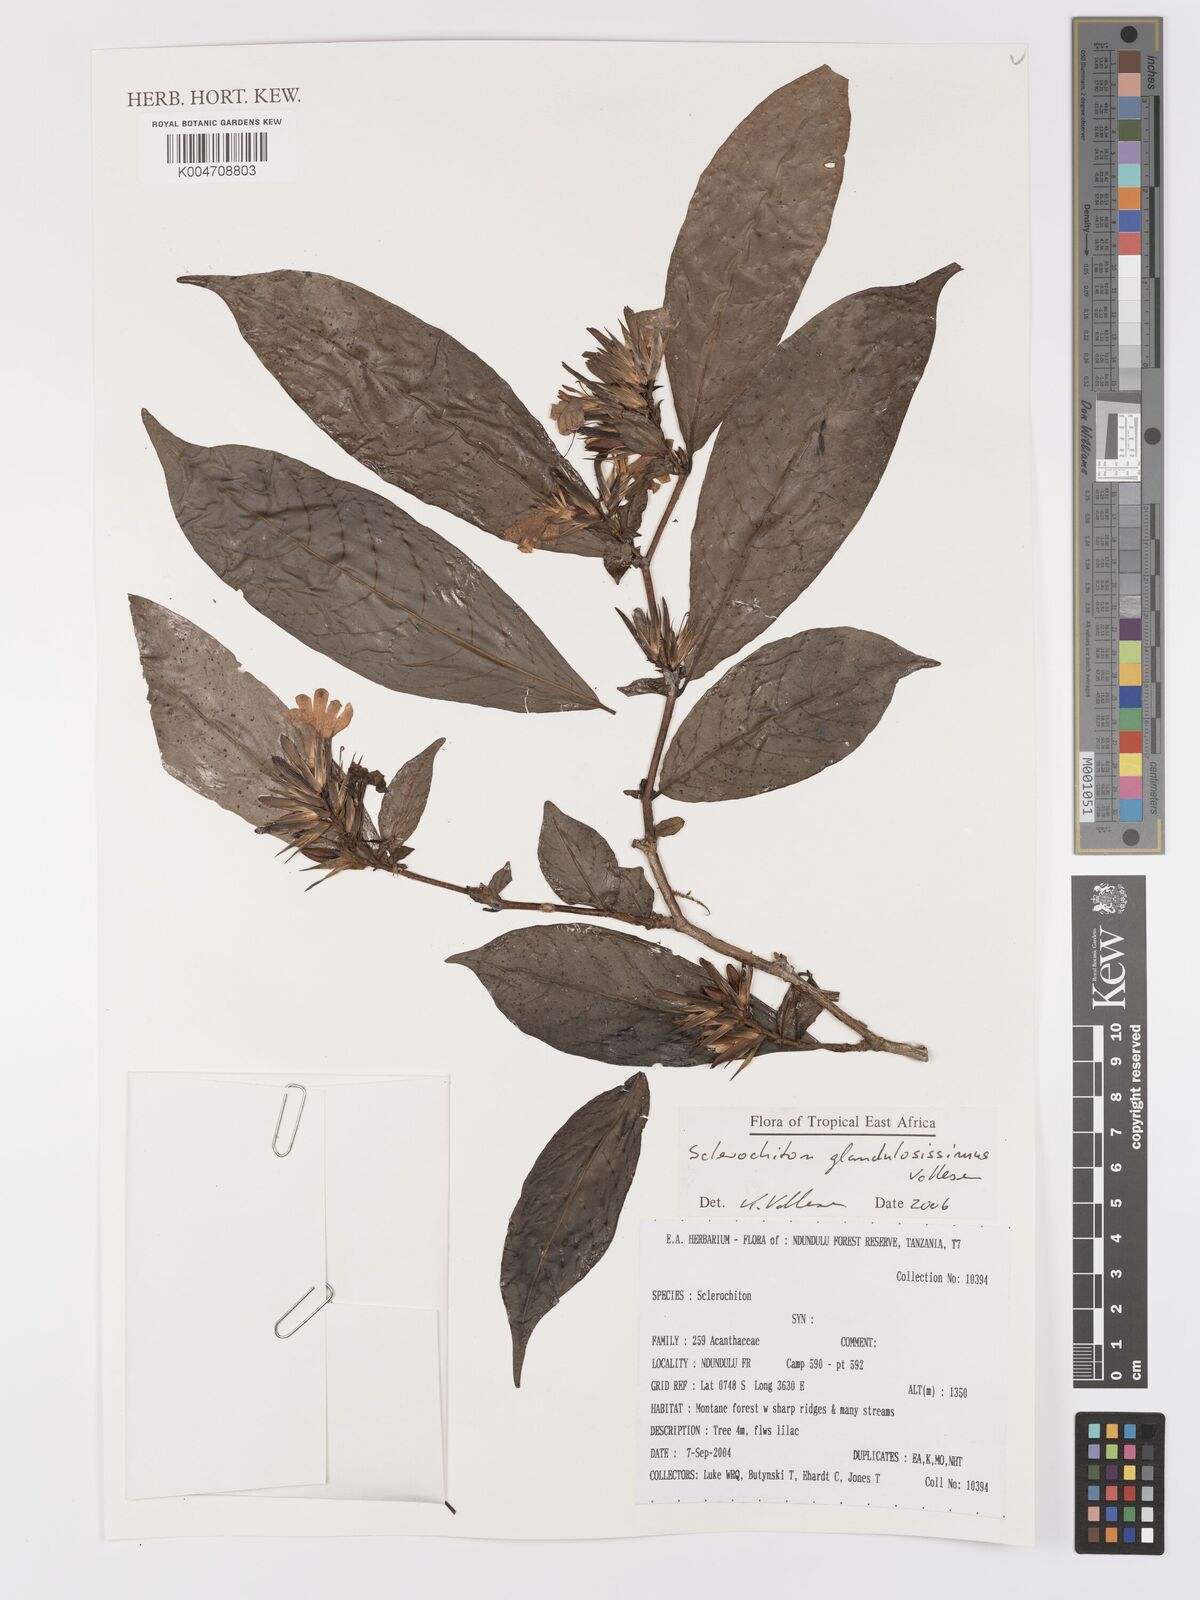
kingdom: Plantae
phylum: Tracheophyta
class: Magnoliopsida
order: Lamiales
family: Acanthaceae
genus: Sclerochiton
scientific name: Sclerochiton glandulosissimus
